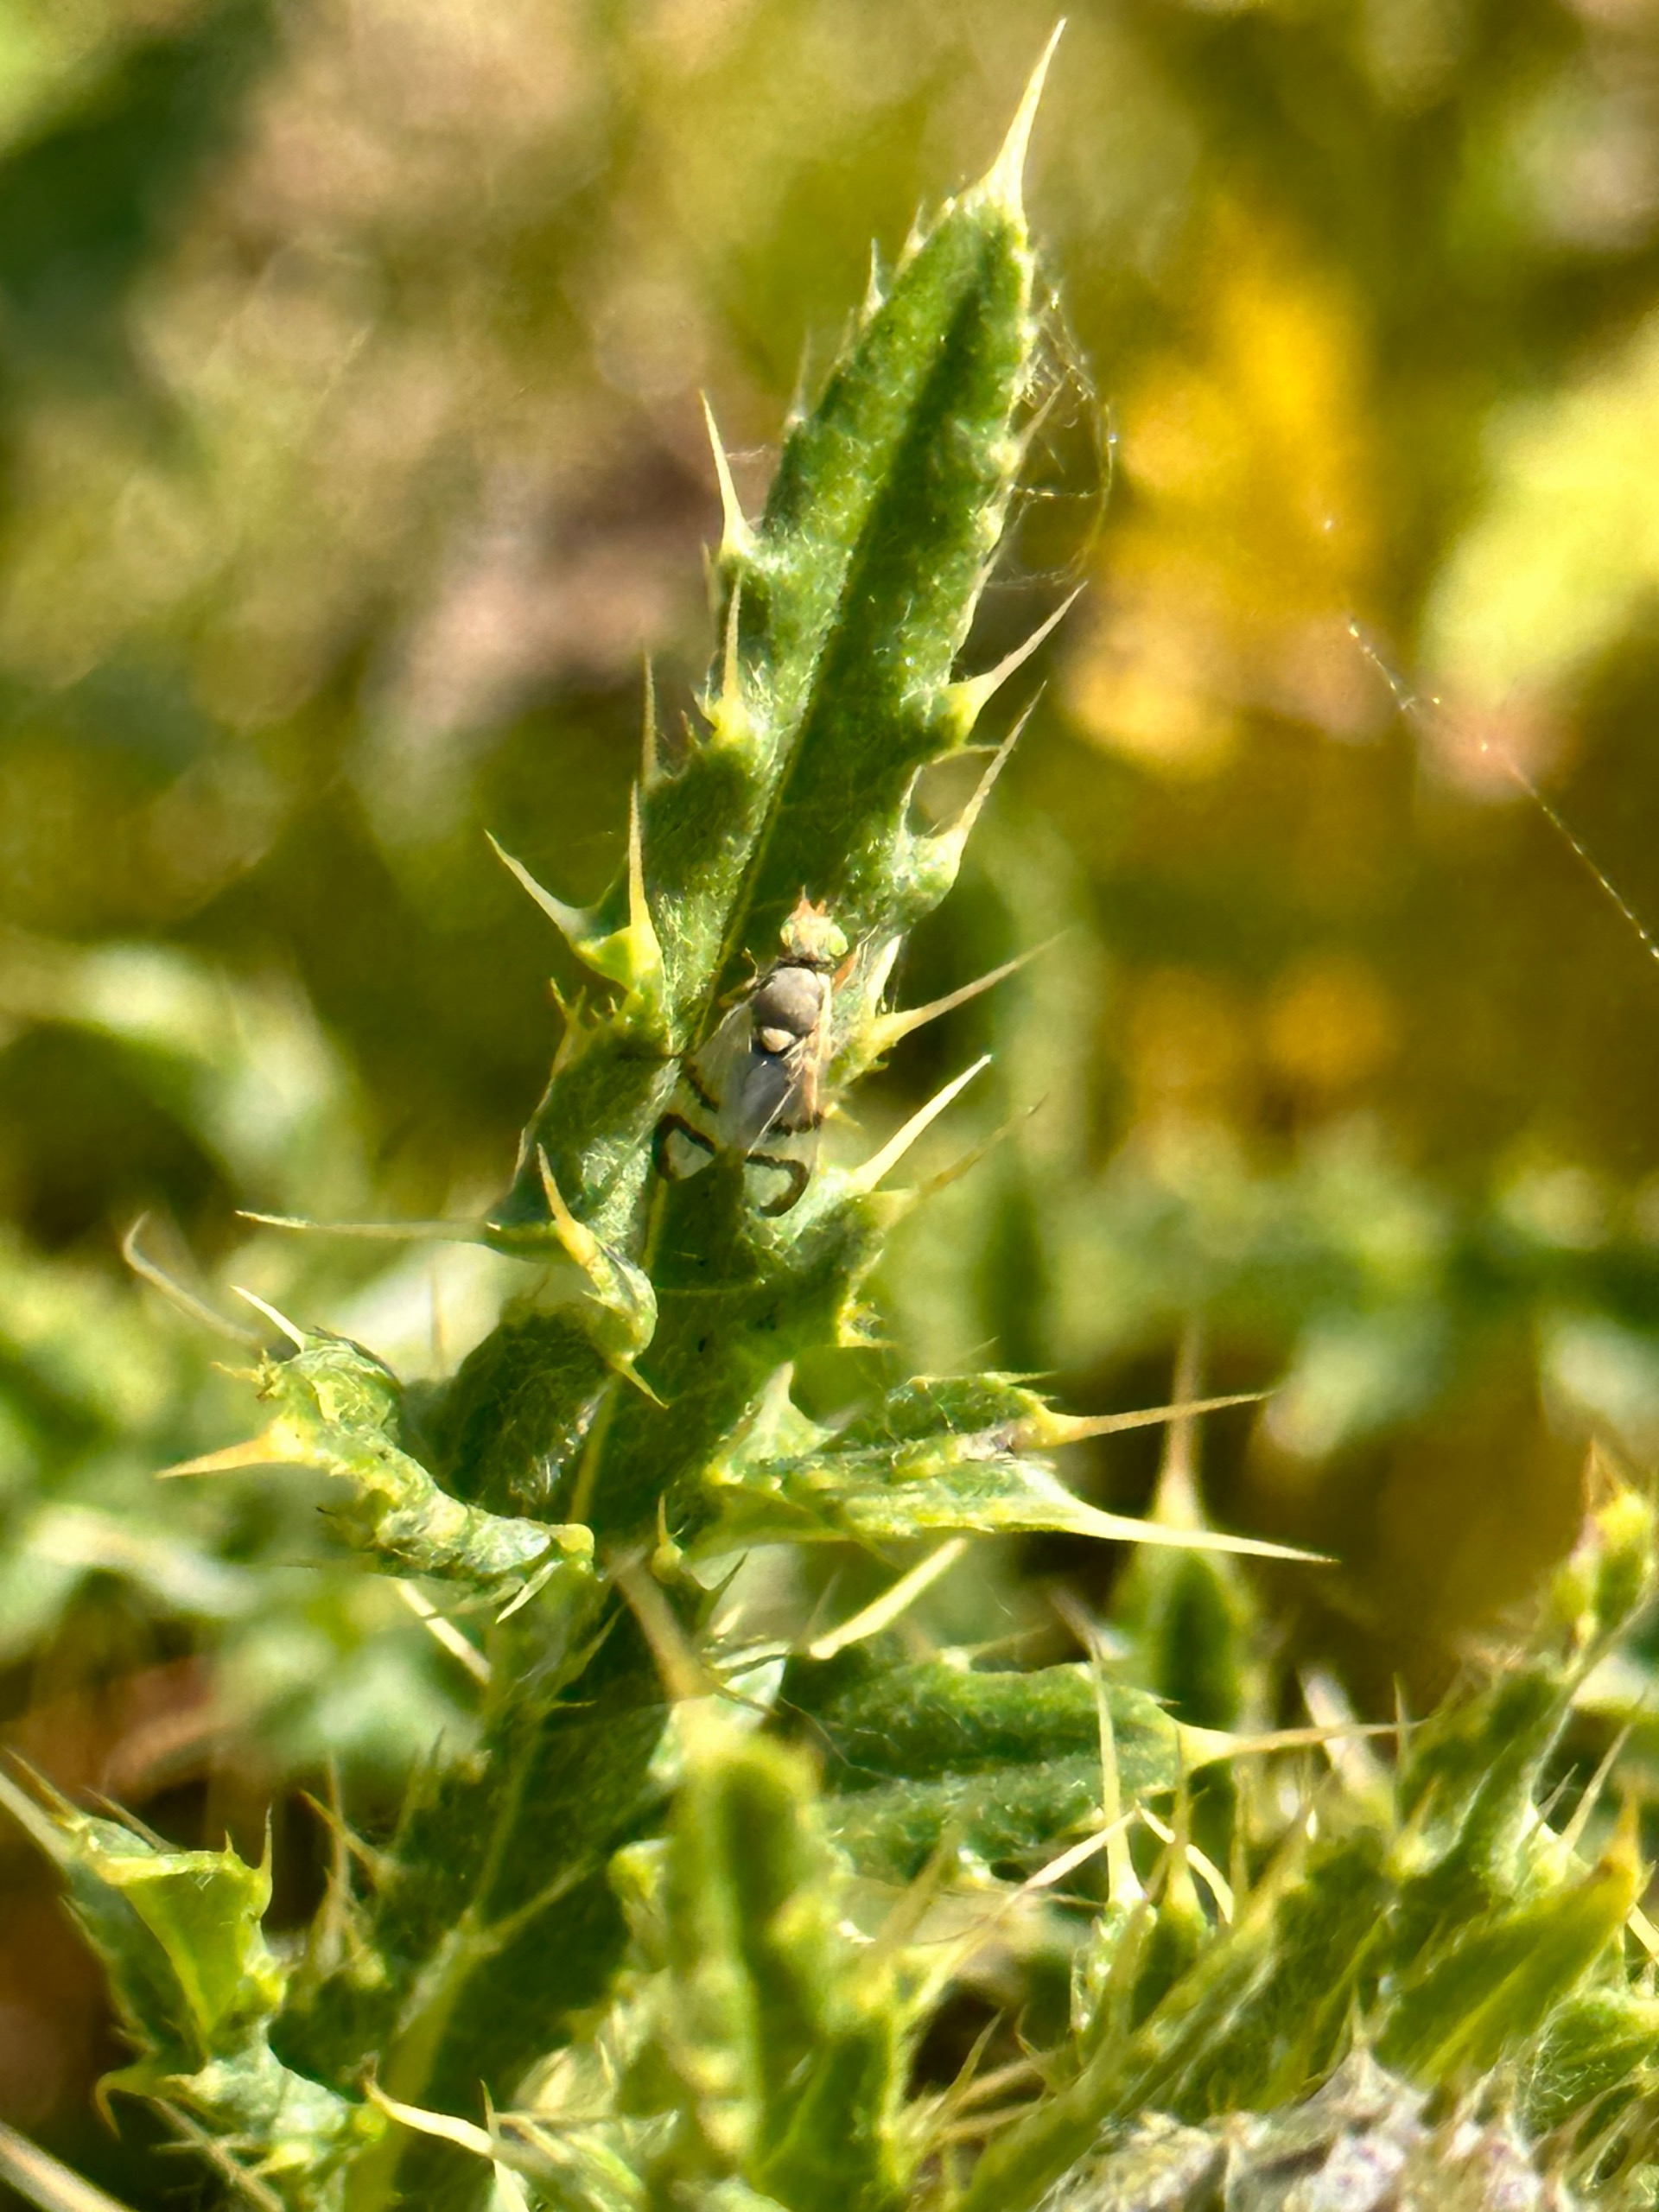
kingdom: Animalia
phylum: Arthropoda
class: Insecta
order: Diptera
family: Tephritidae
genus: Urophora
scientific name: Urophora stylata
